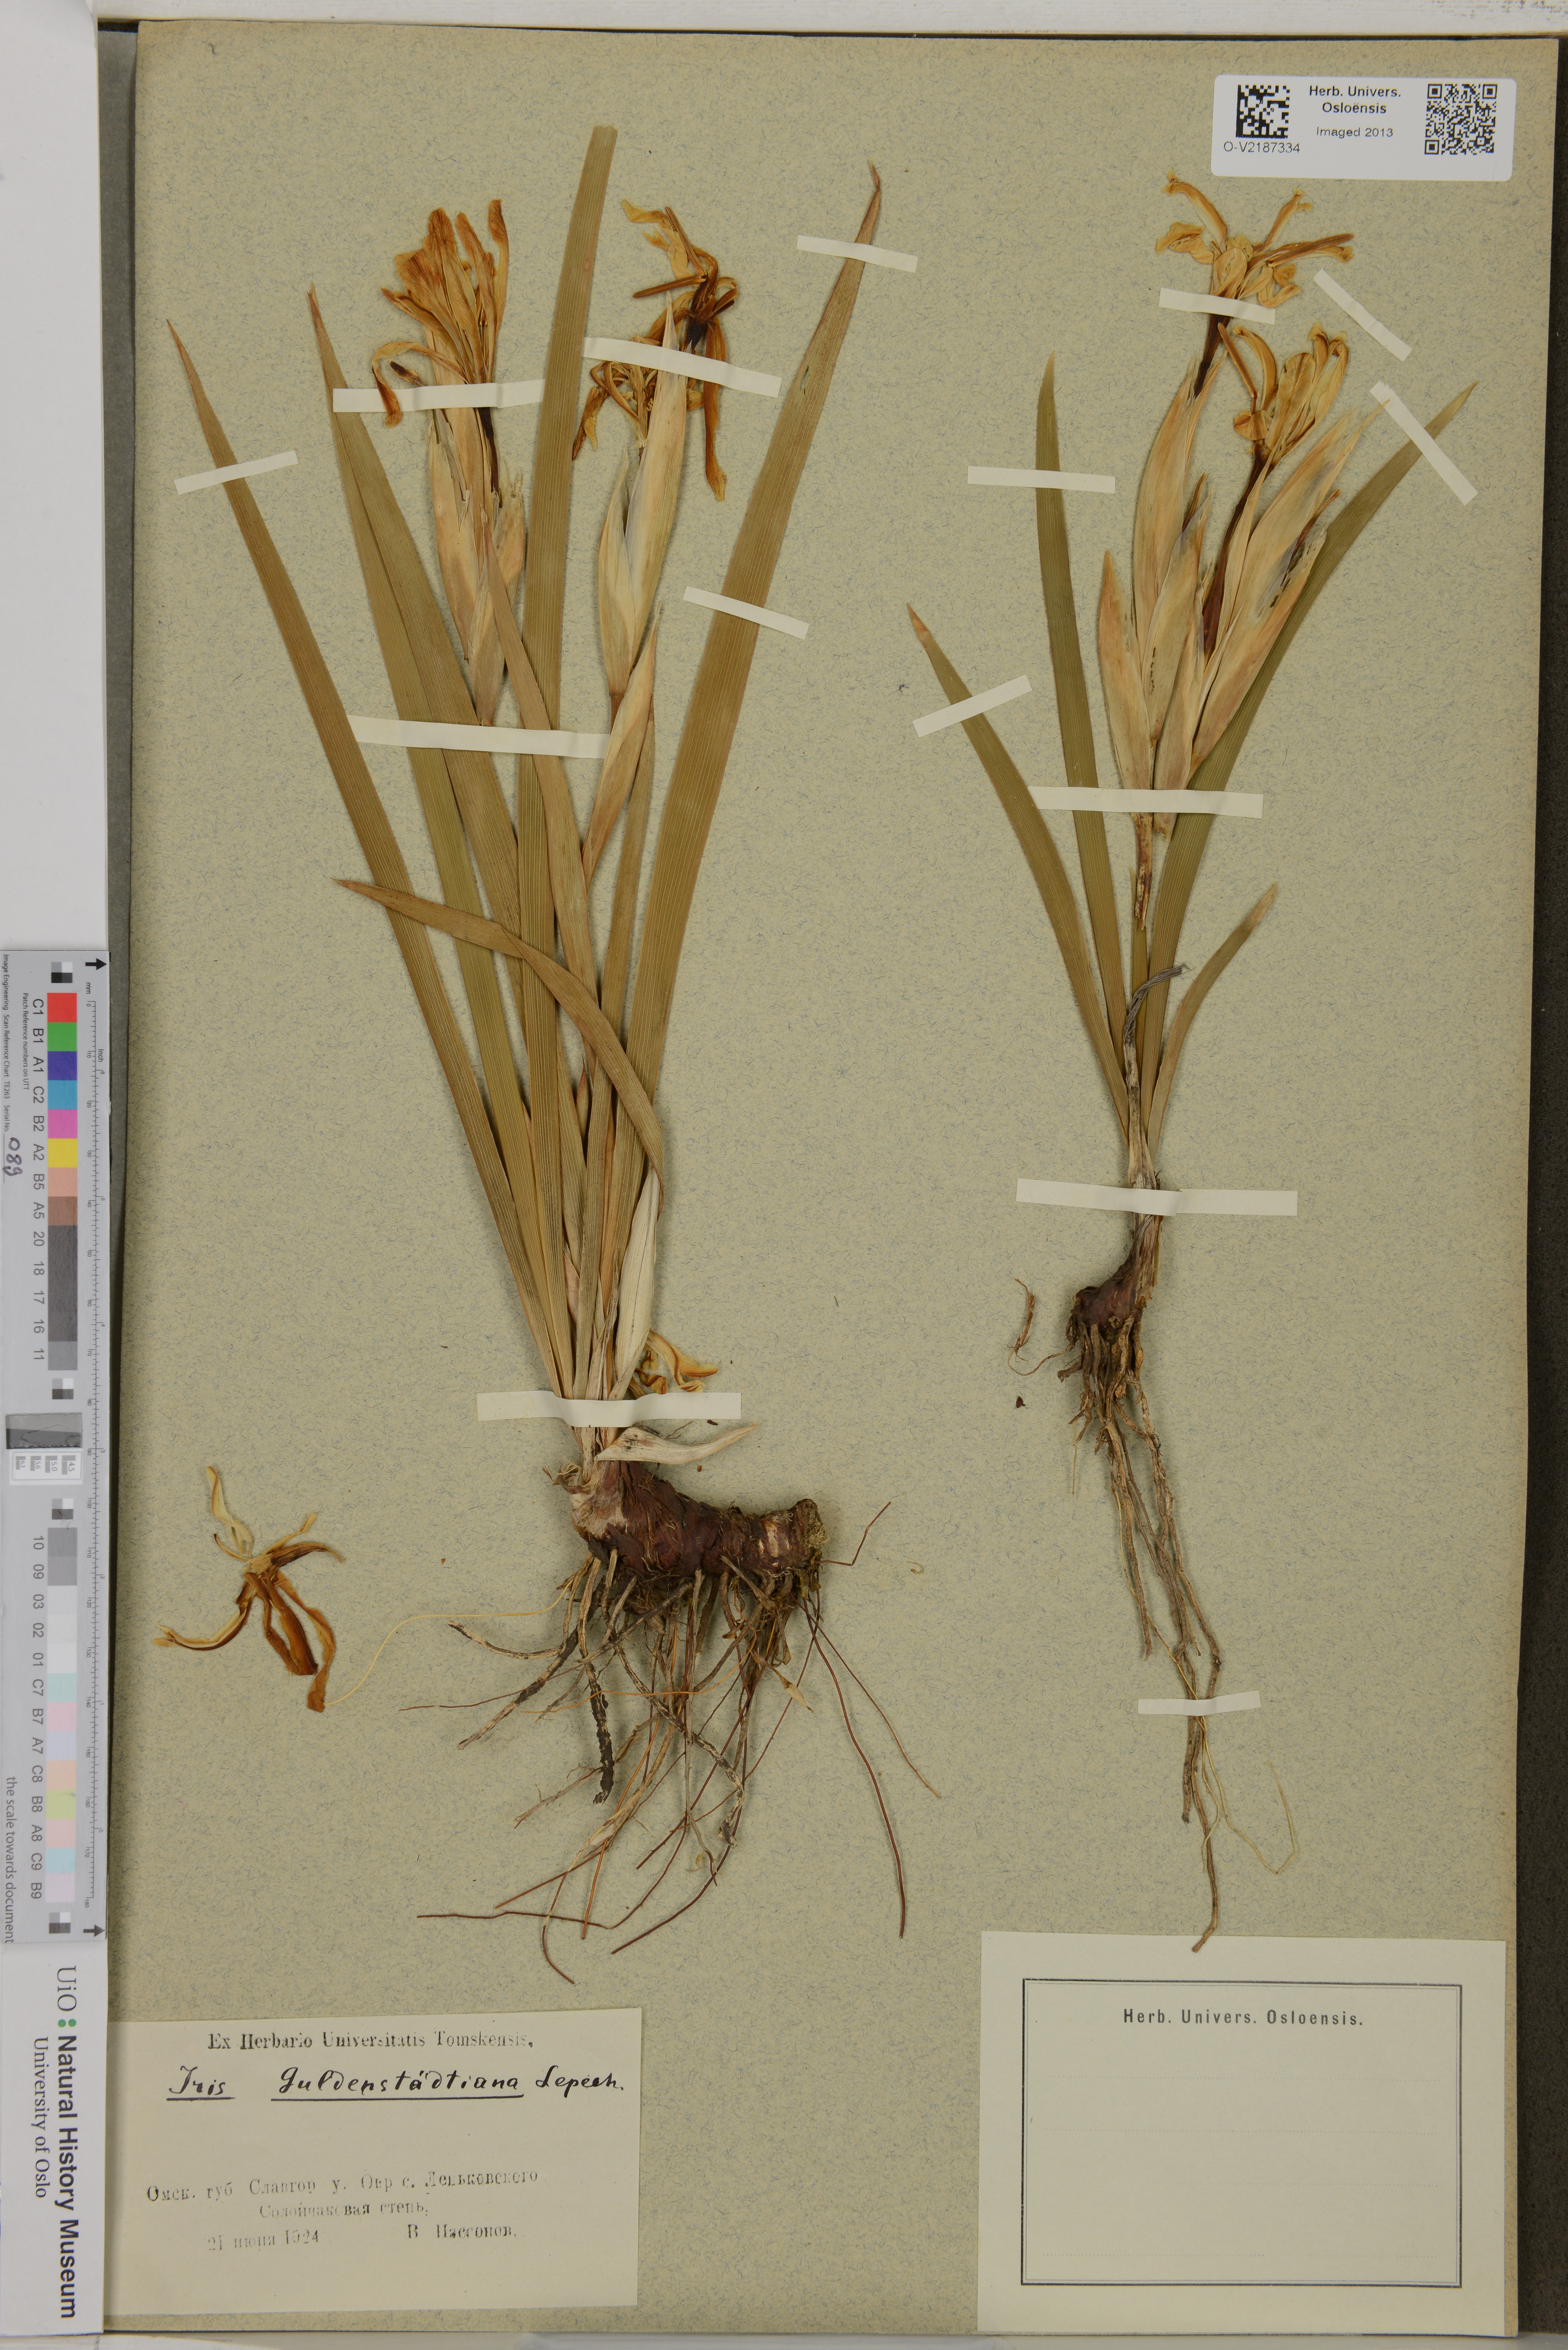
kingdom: Plantae
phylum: Tracheophyta
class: Liliopsida
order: Asparagales
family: Iridaceae
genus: Iris
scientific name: Iris halophila
